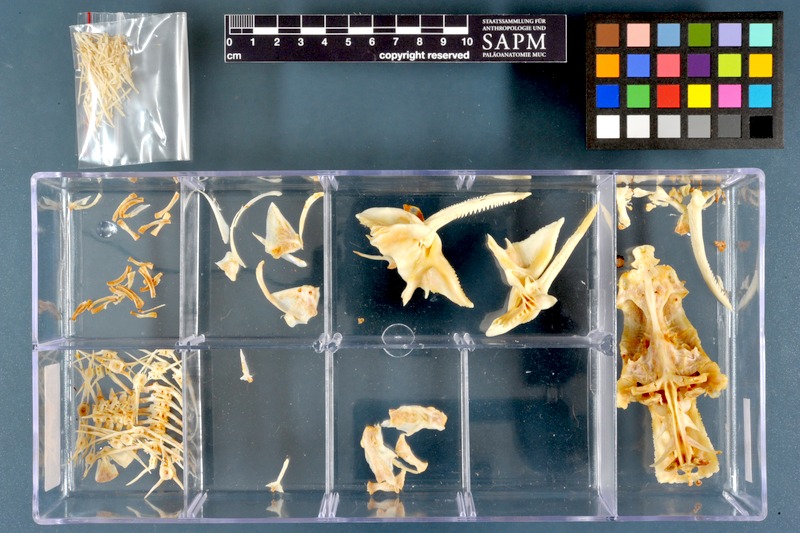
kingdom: Animalia
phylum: Chordata
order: Siluriformes
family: Mochokidae
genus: Synodontis
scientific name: Synodontis
